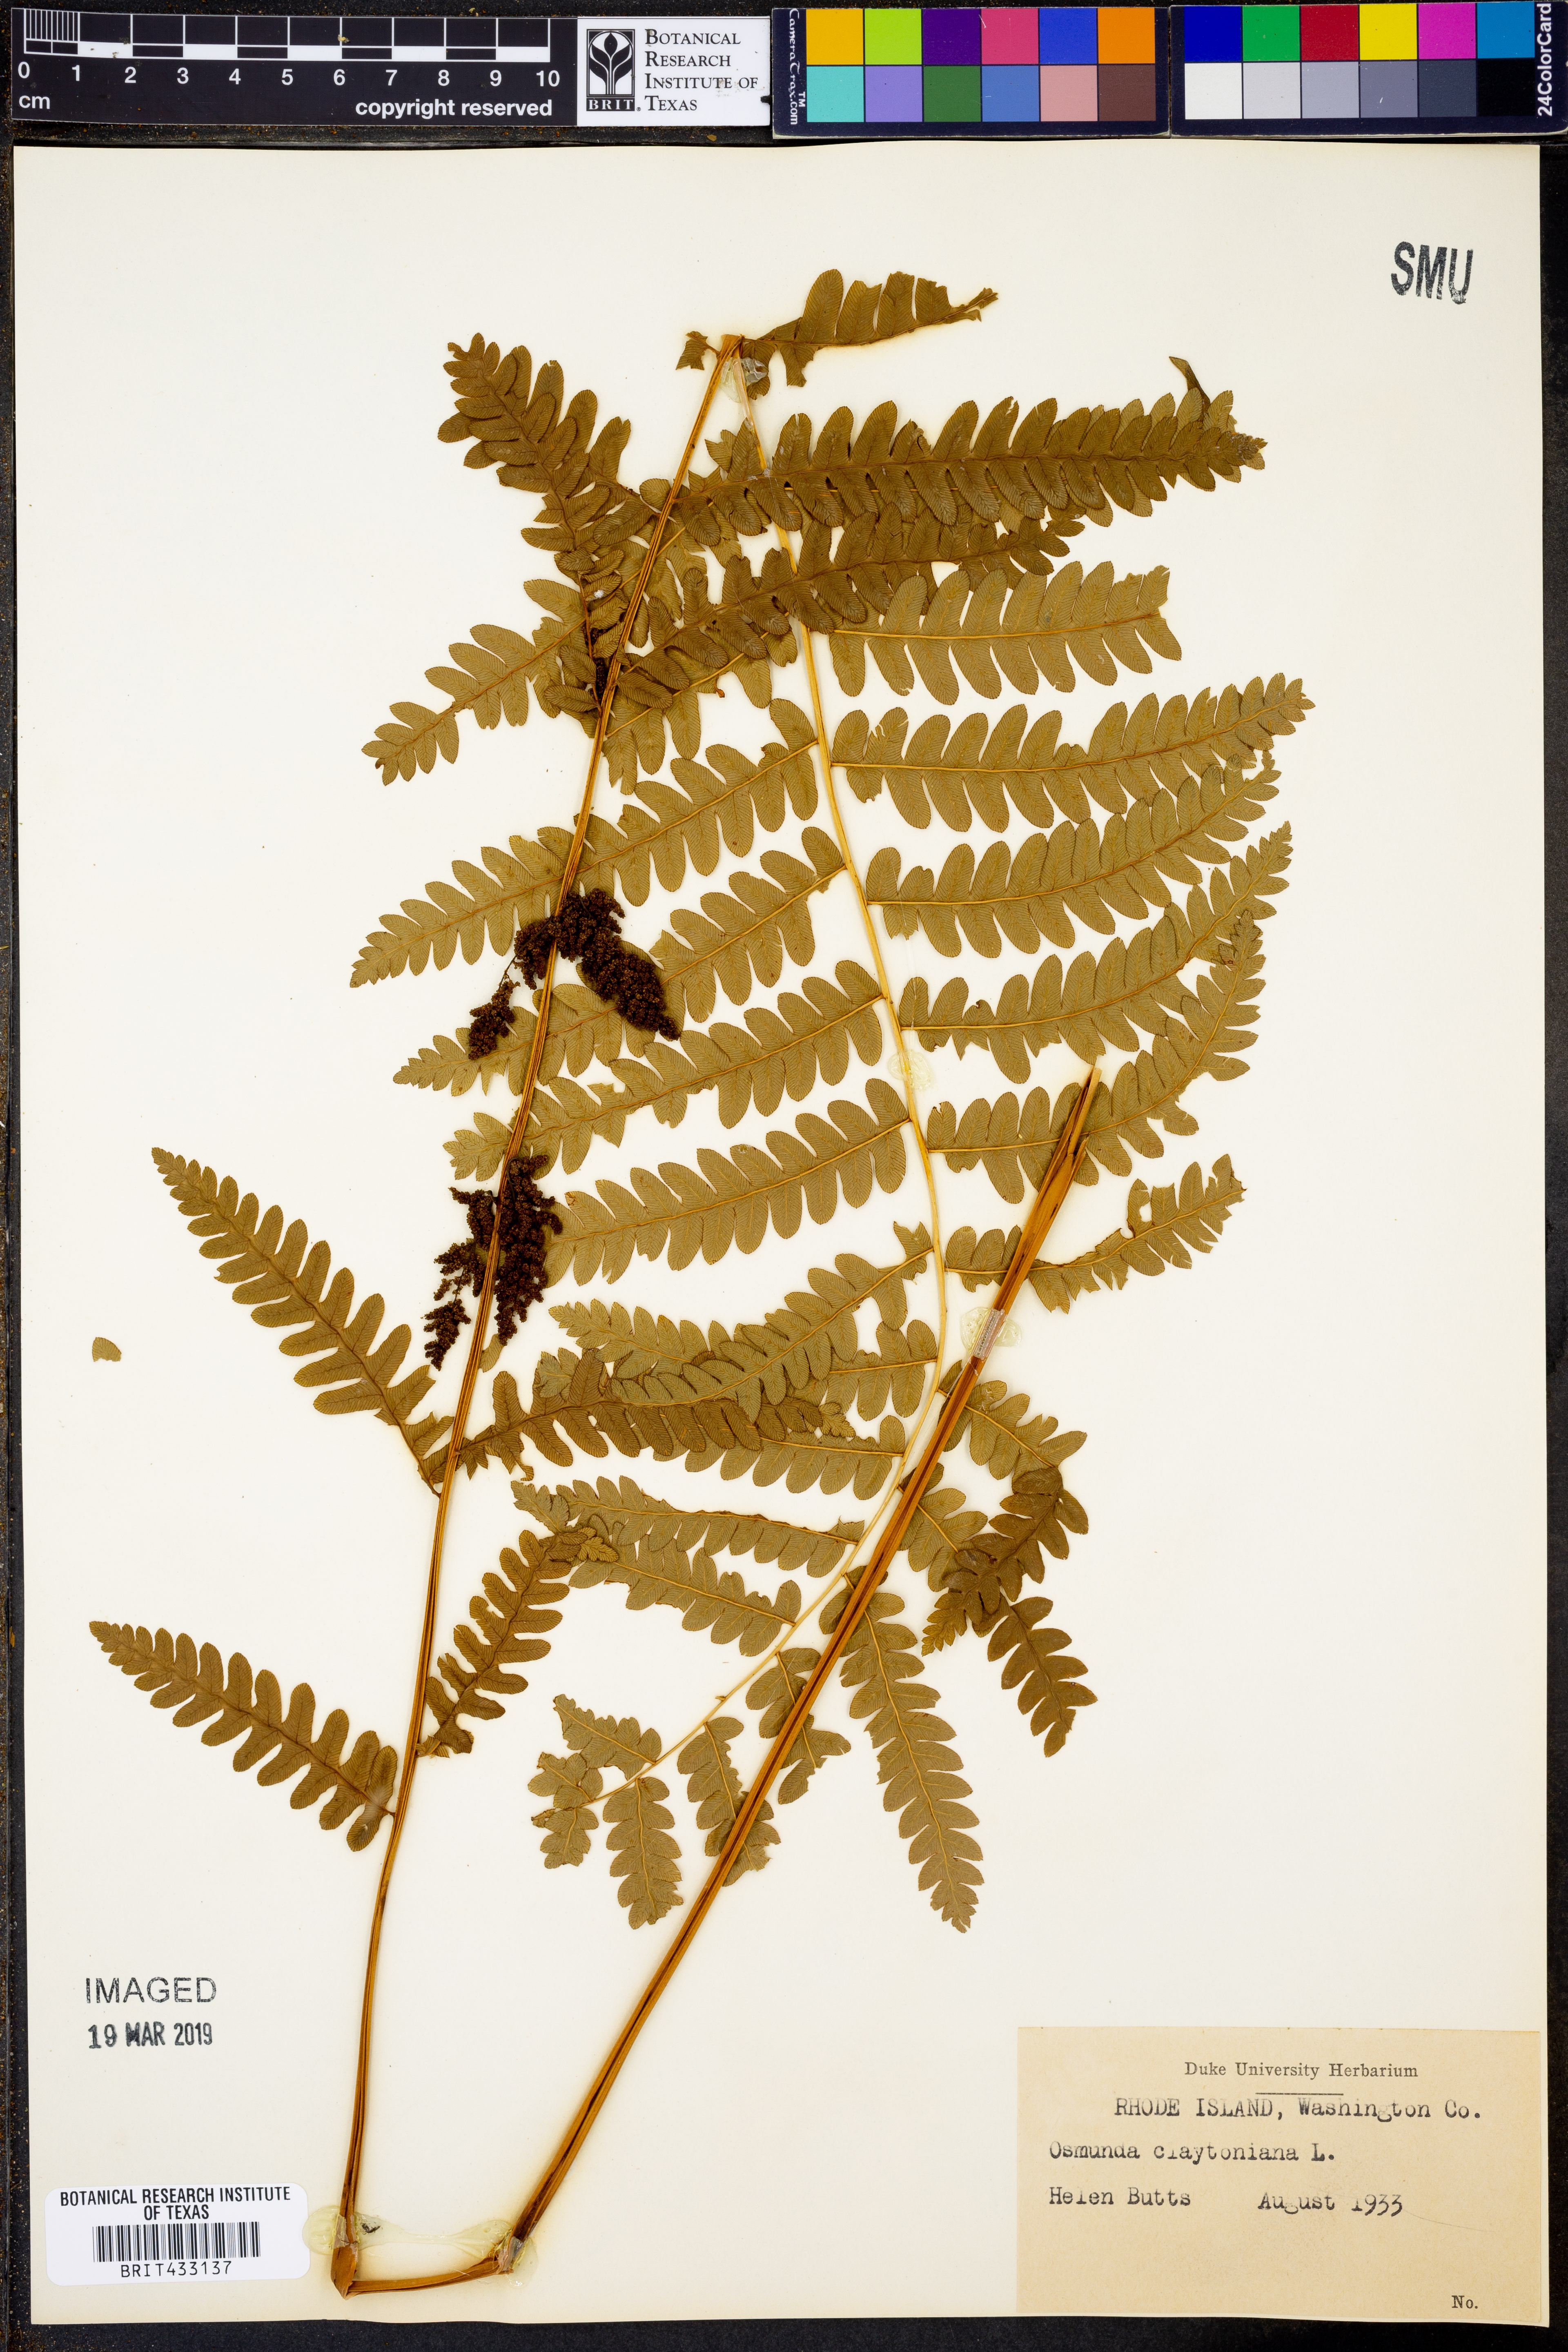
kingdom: Plantae
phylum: Tracheophyta
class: Polypodiopsida
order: Osmundales
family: Osmundaceae
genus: Claytosmunda
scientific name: Claytosmunda claytoniana
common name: Clayton's fern
